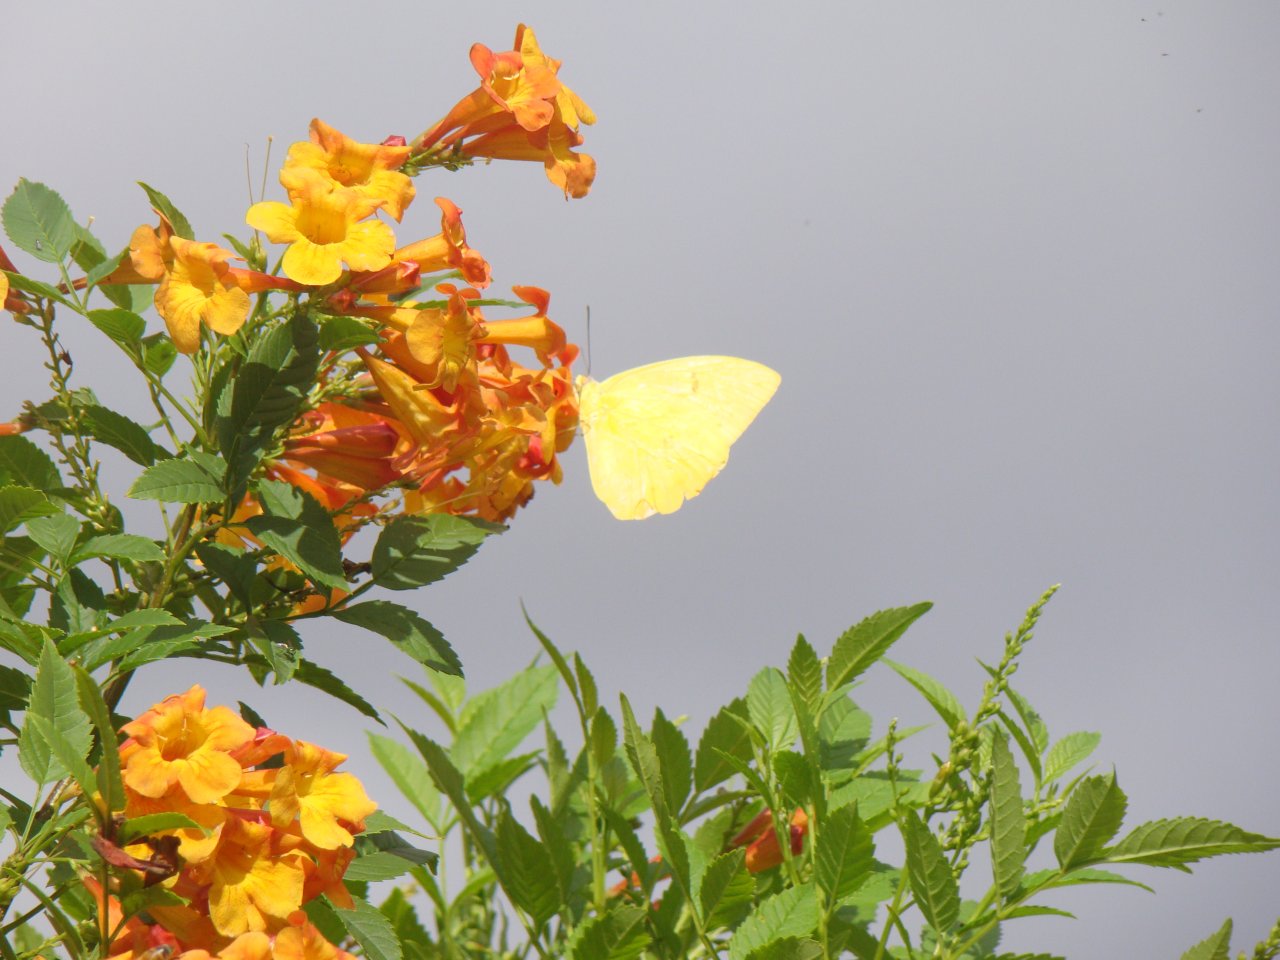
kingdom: Animalia
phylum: Arthropoda
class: Insecta
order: Lepidoptera
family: Pieridae
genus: Phoebis
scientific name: Phoebis philea
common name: Orange-barred Sulphur
